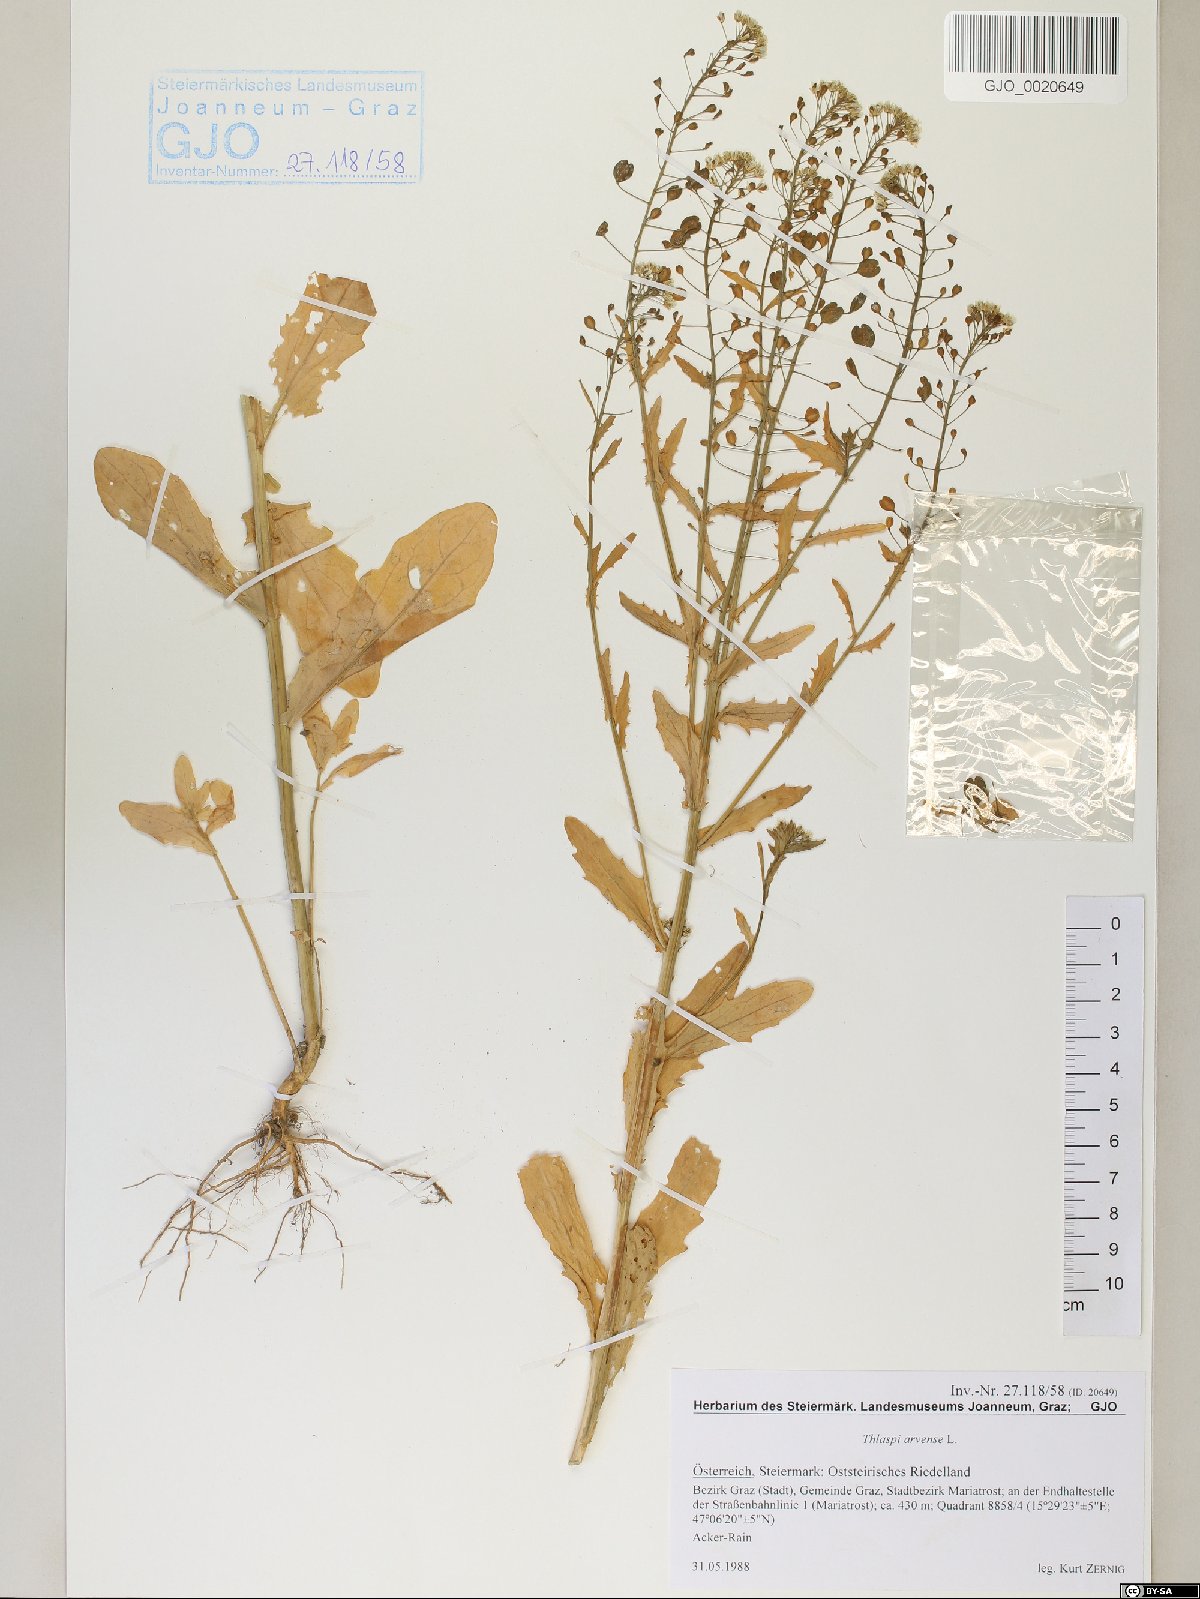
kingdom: Plantae
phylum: Tracheophyta
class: Magnoliopsida
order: Brassicales
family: Brassicaceae
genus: Thlaspi
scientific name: Thlaspi arvense
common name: Field pennycress
